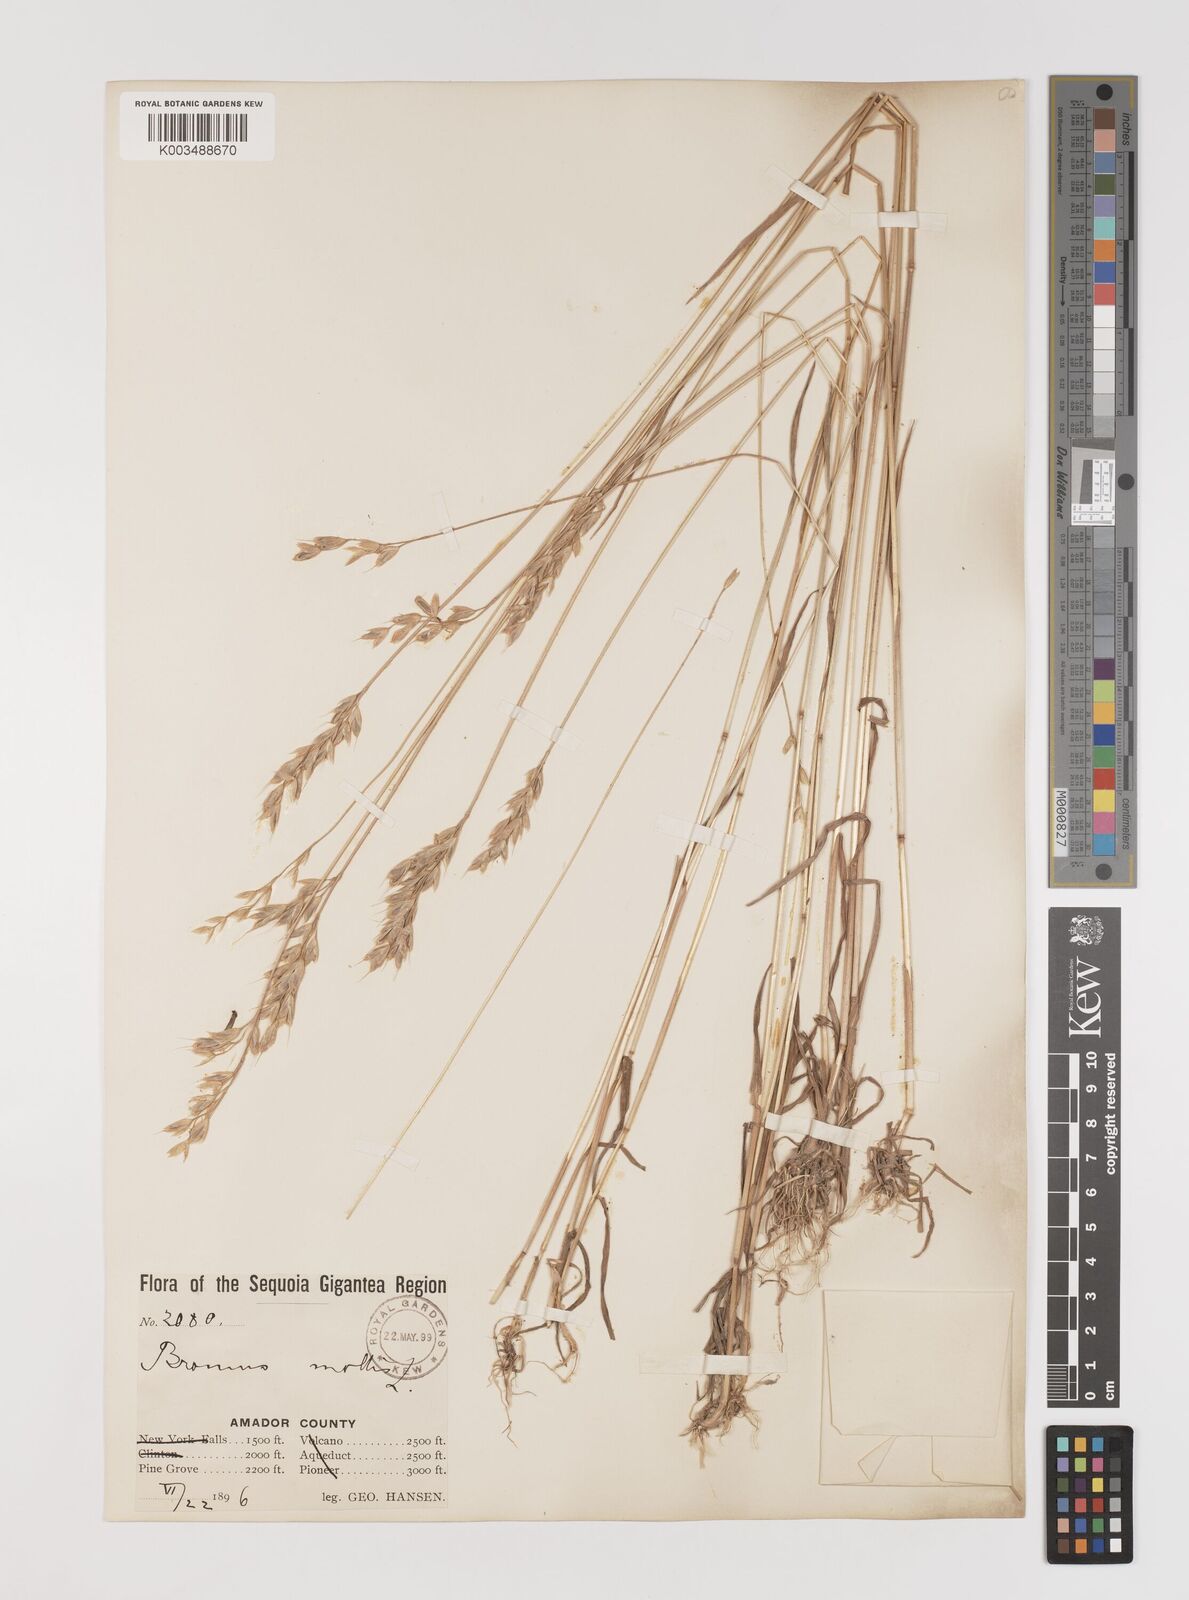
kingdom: Plantae
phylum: Tracheophyta
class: Liliopsida
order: Poales
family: Poaceae
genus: Bromus
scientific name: Bromus hordeaceus
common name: Soft brome
